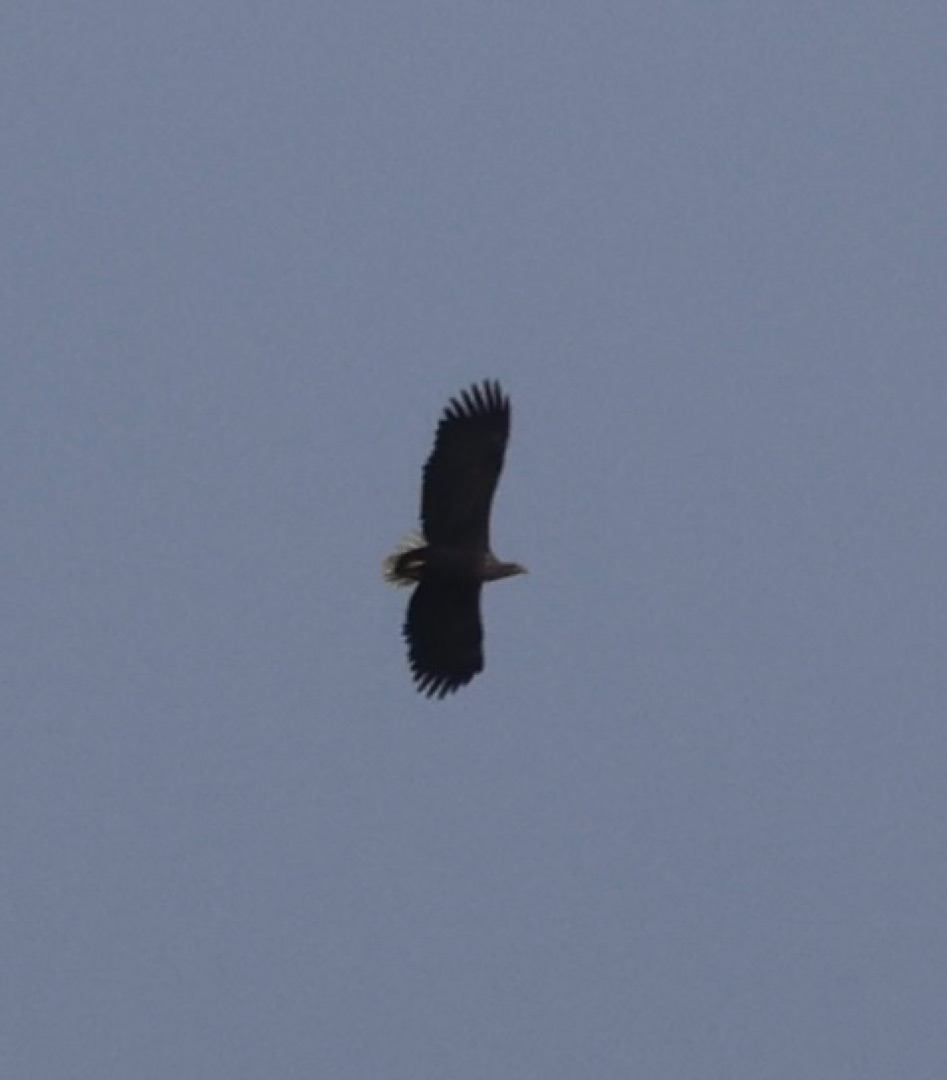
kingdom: Animalia
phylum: Chordata
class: Aves
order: Accipitriformes
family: Accipitridae
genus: Haliaeetus
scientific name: Haliaeetus albicilla
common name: Havørn
